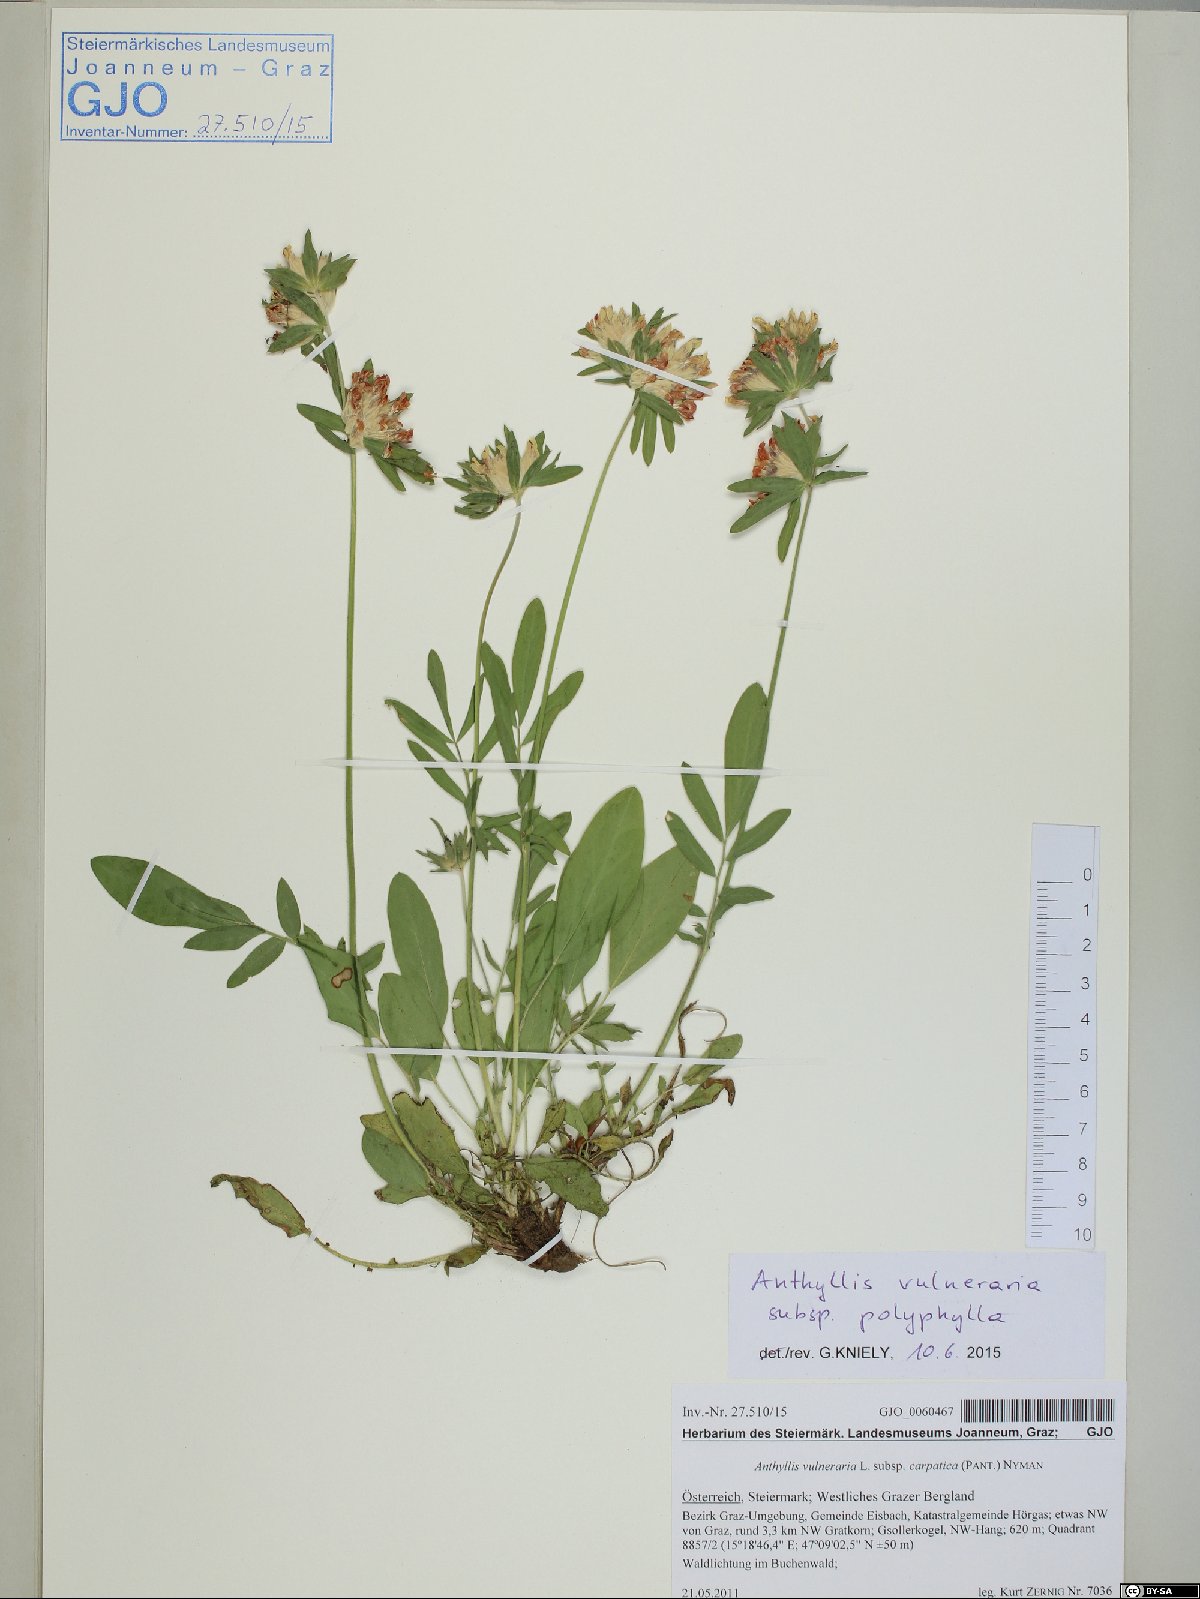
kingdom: Plantae
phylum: Tracheophyta
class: Magnoliopsida
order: Fabales
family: Fabaceae
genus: Anthyllis
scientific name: Anthyllis vulneraria
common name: Kidney vetch
